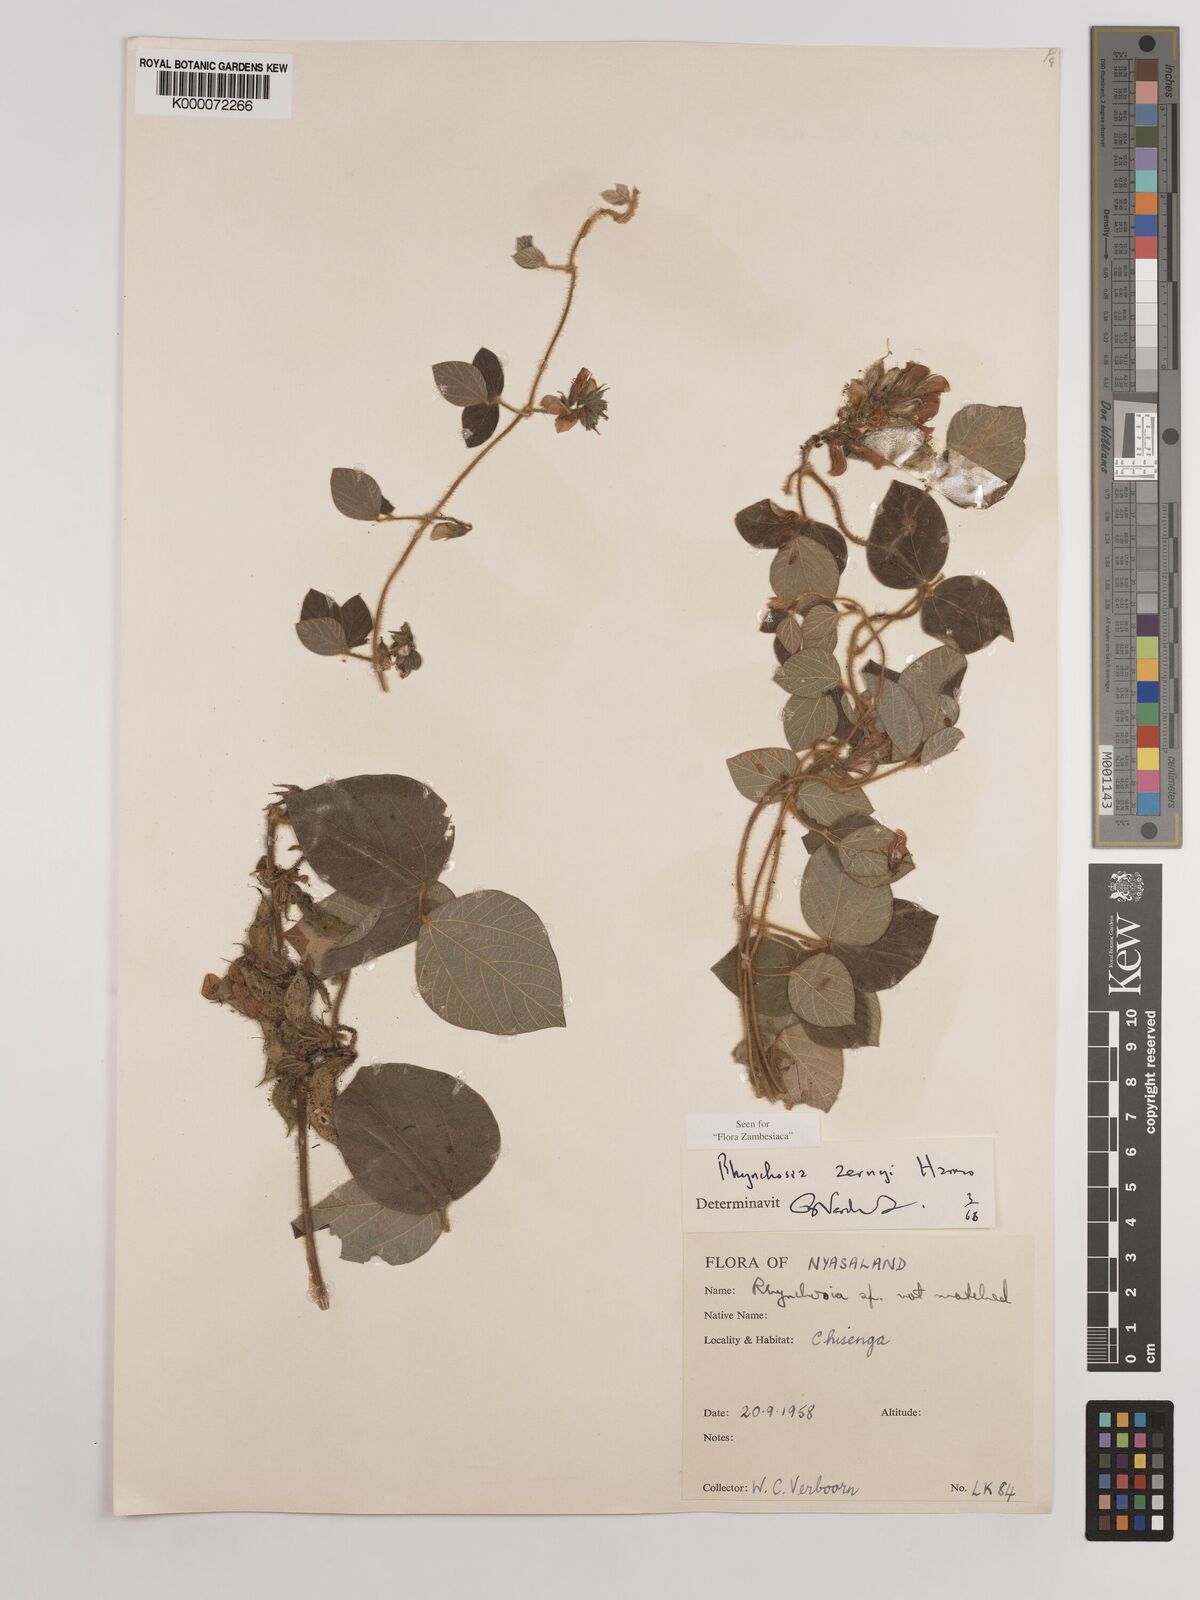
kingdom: Plantae
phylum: Tracheophyta
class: Magnoliopsida
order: Fabales
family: Fabaceae
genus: Rhynchosia
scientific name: Rhynchosia zernyi
